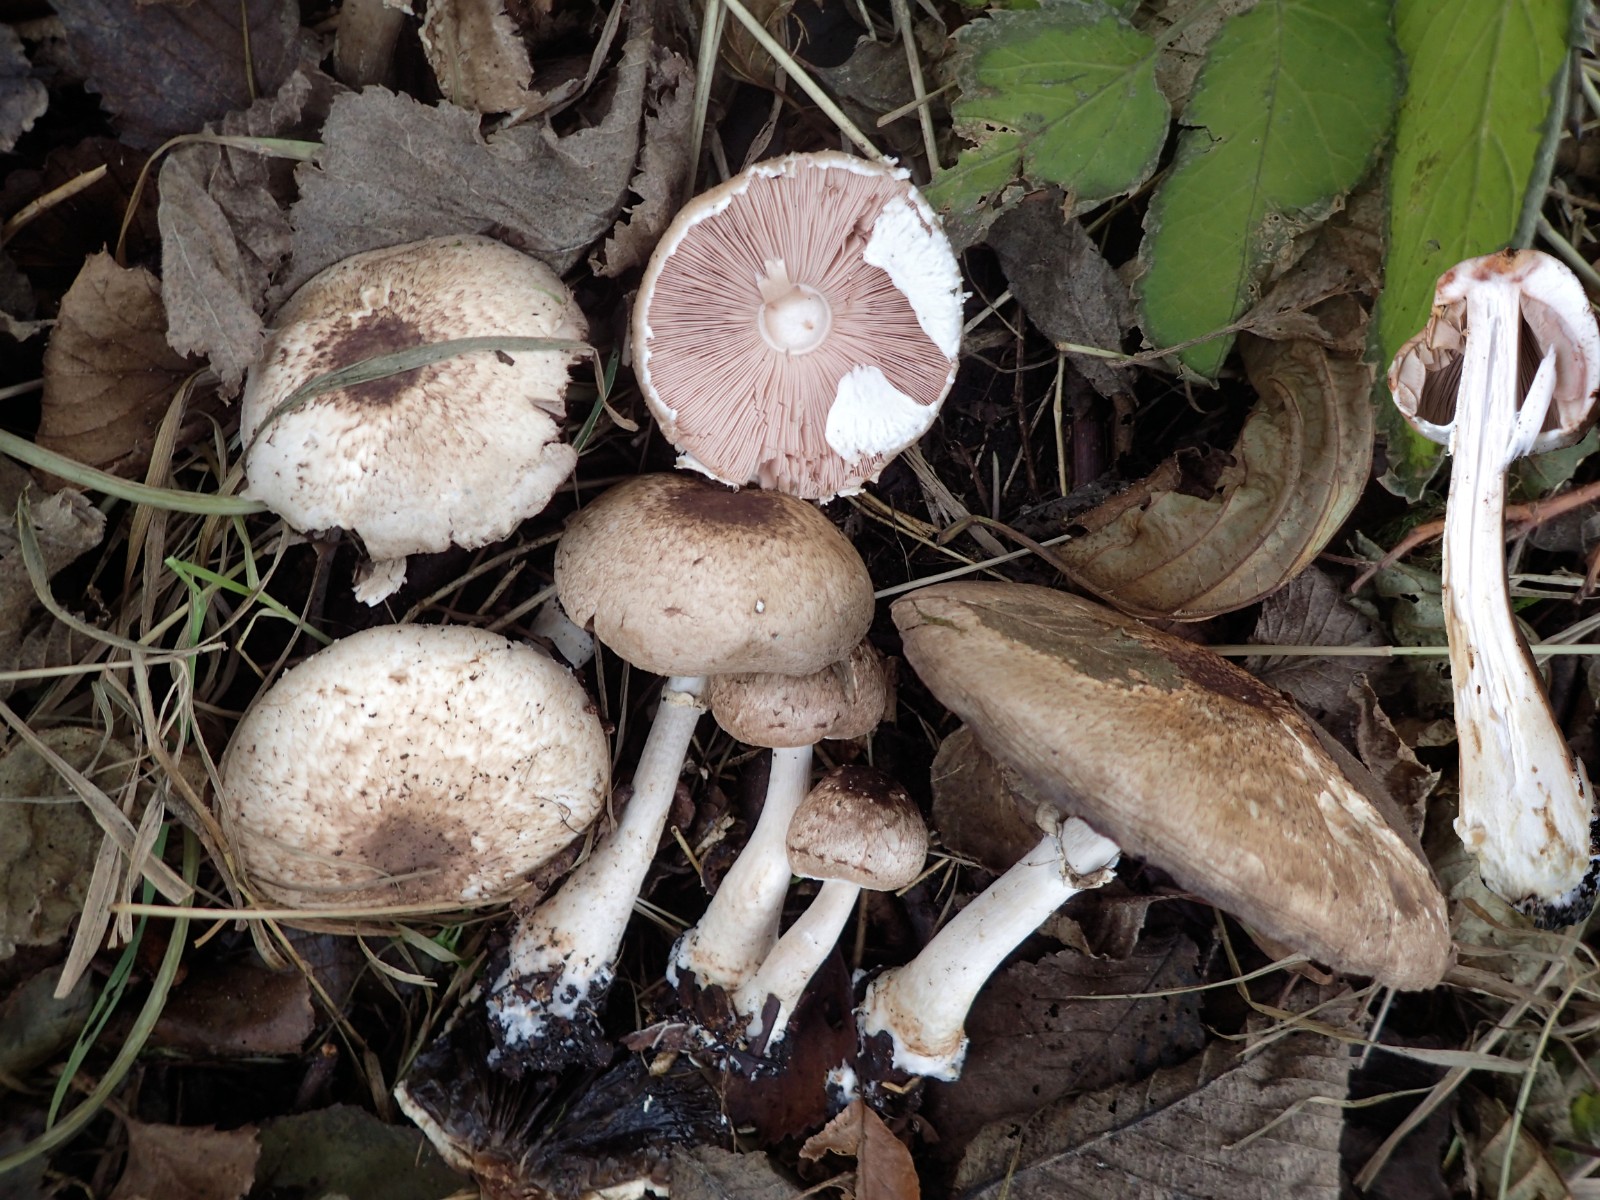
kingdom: Fungi
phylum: Basidiomycota
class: Agaricomycetes
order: Agaricales
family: Agaricaceae
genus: Agaricus
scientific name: Agaricus impudicus
